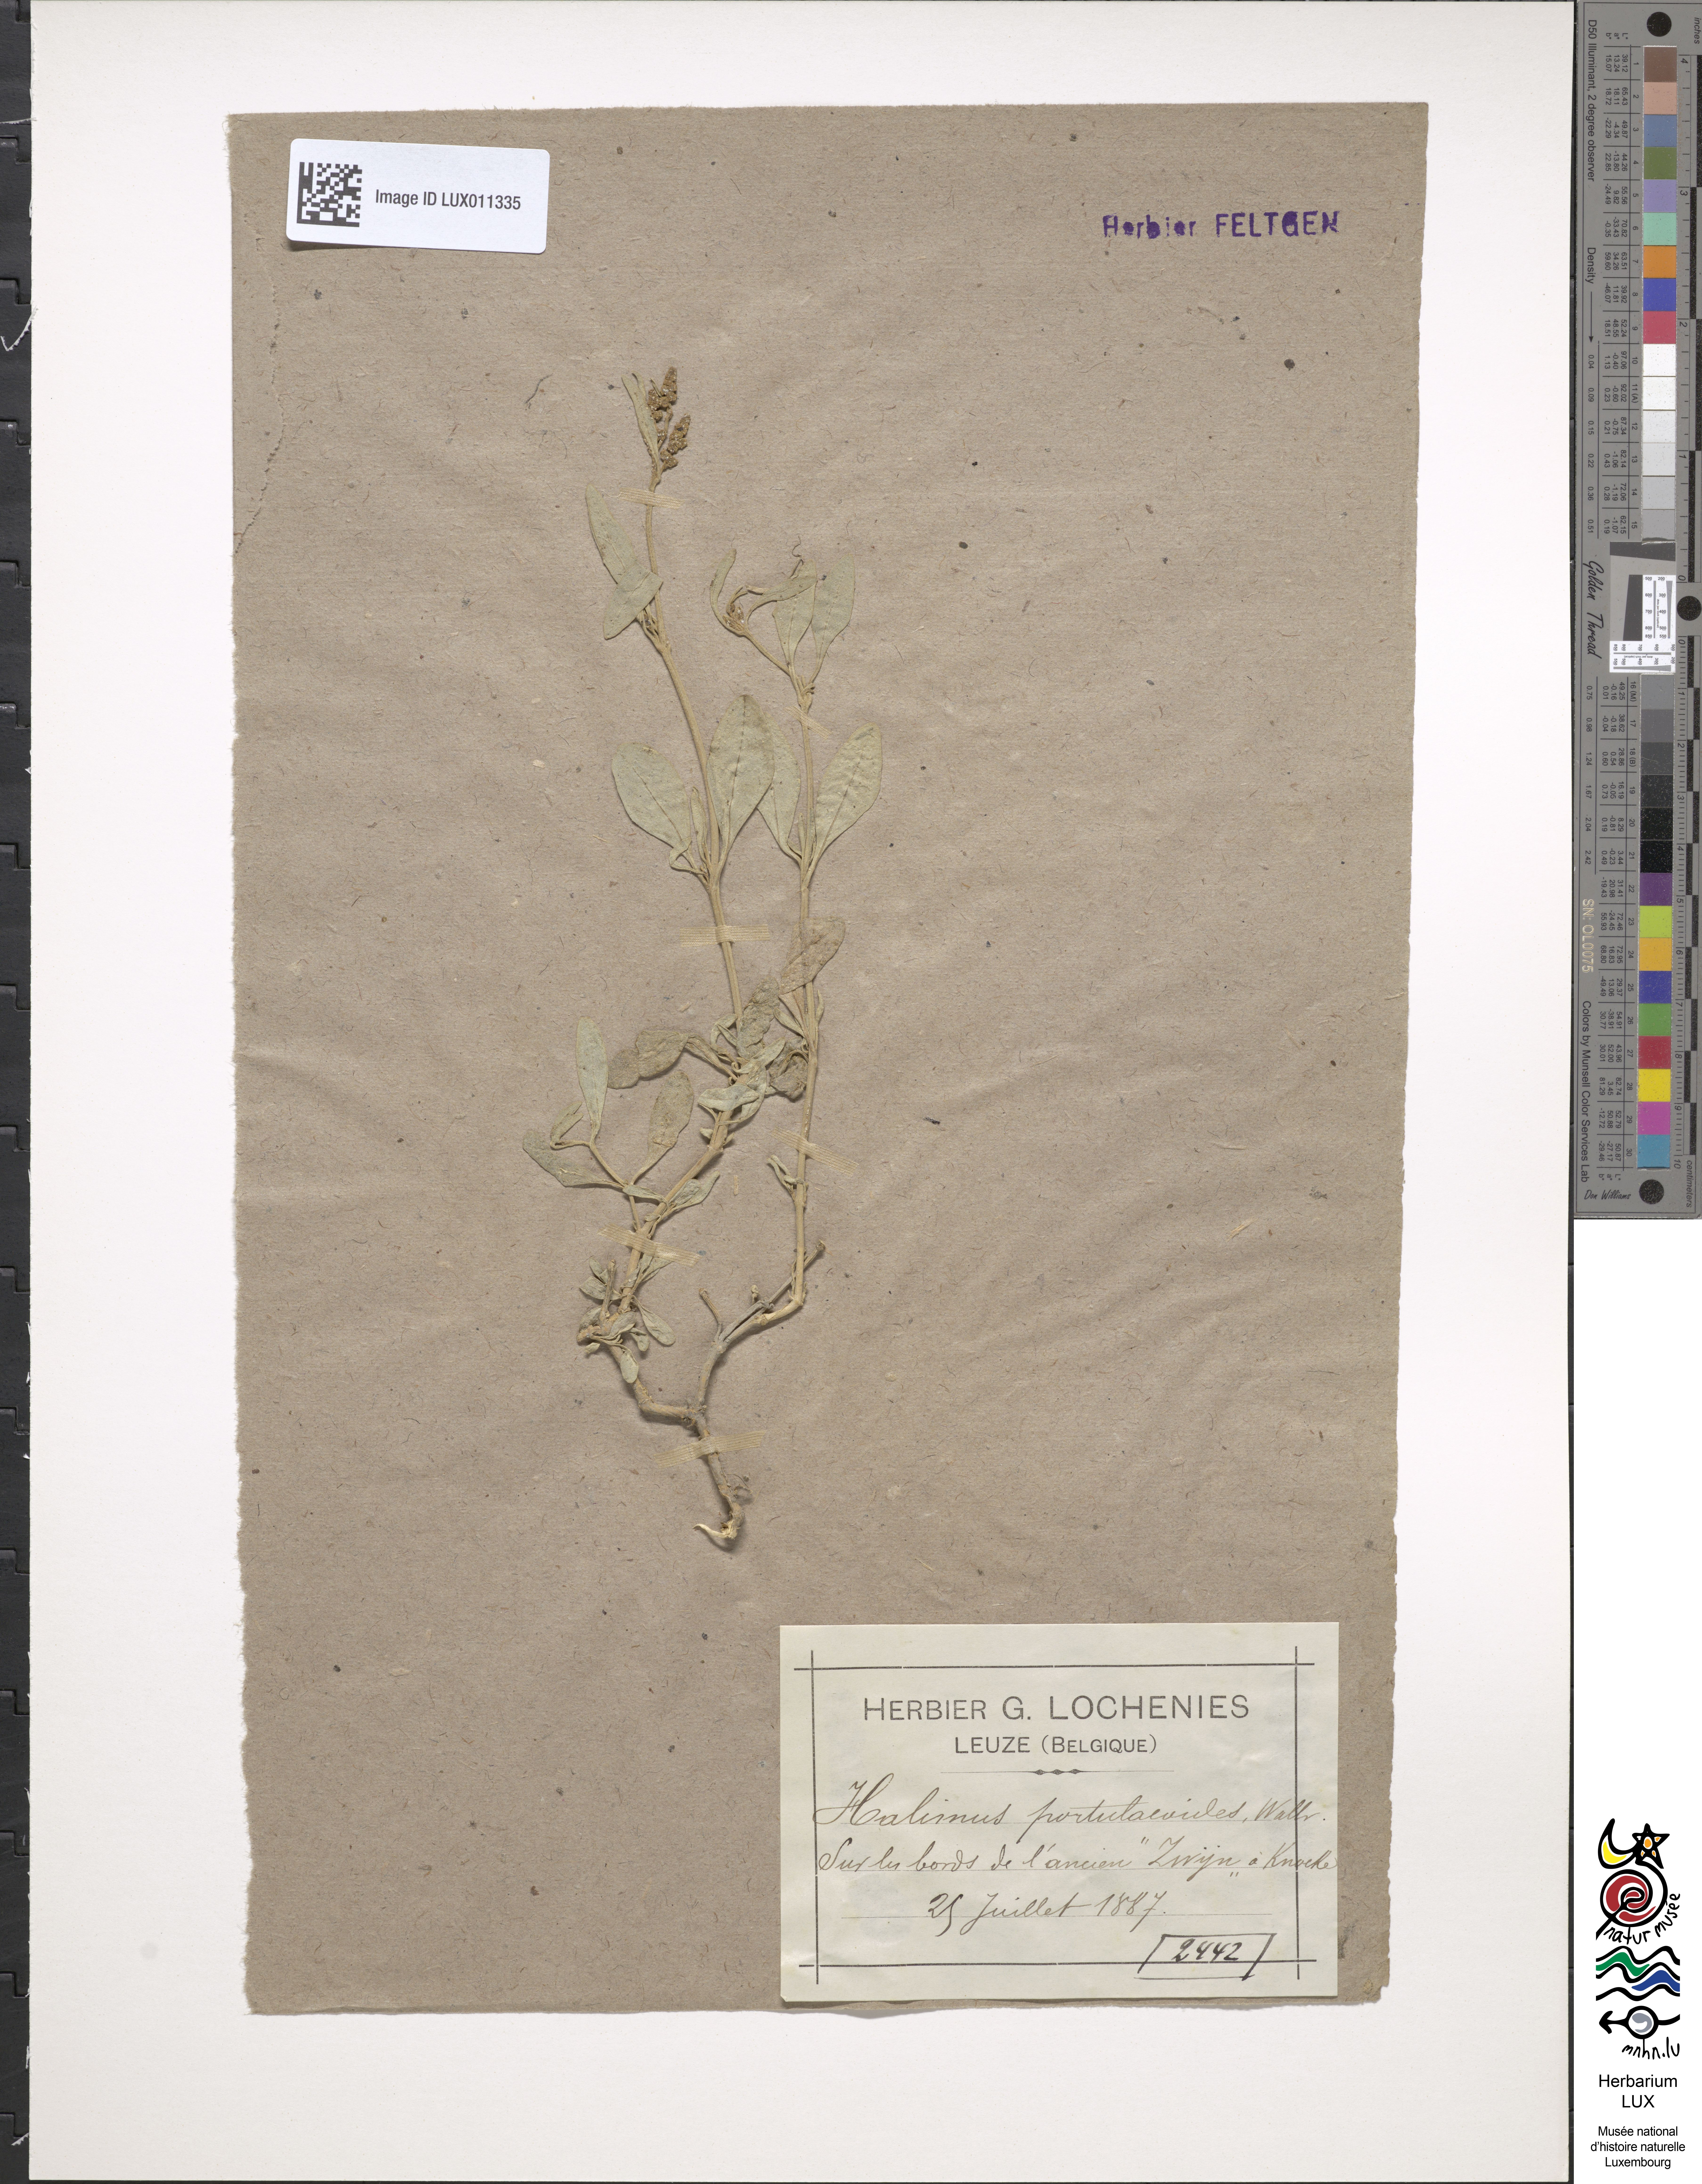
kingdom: Plantae
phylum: Tracheophyta
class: Magnoliopsida
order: Caryophyllales
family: Amaranthaceae
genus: Halimione
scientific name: Halimione portulacoides
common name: Sea-purslane
